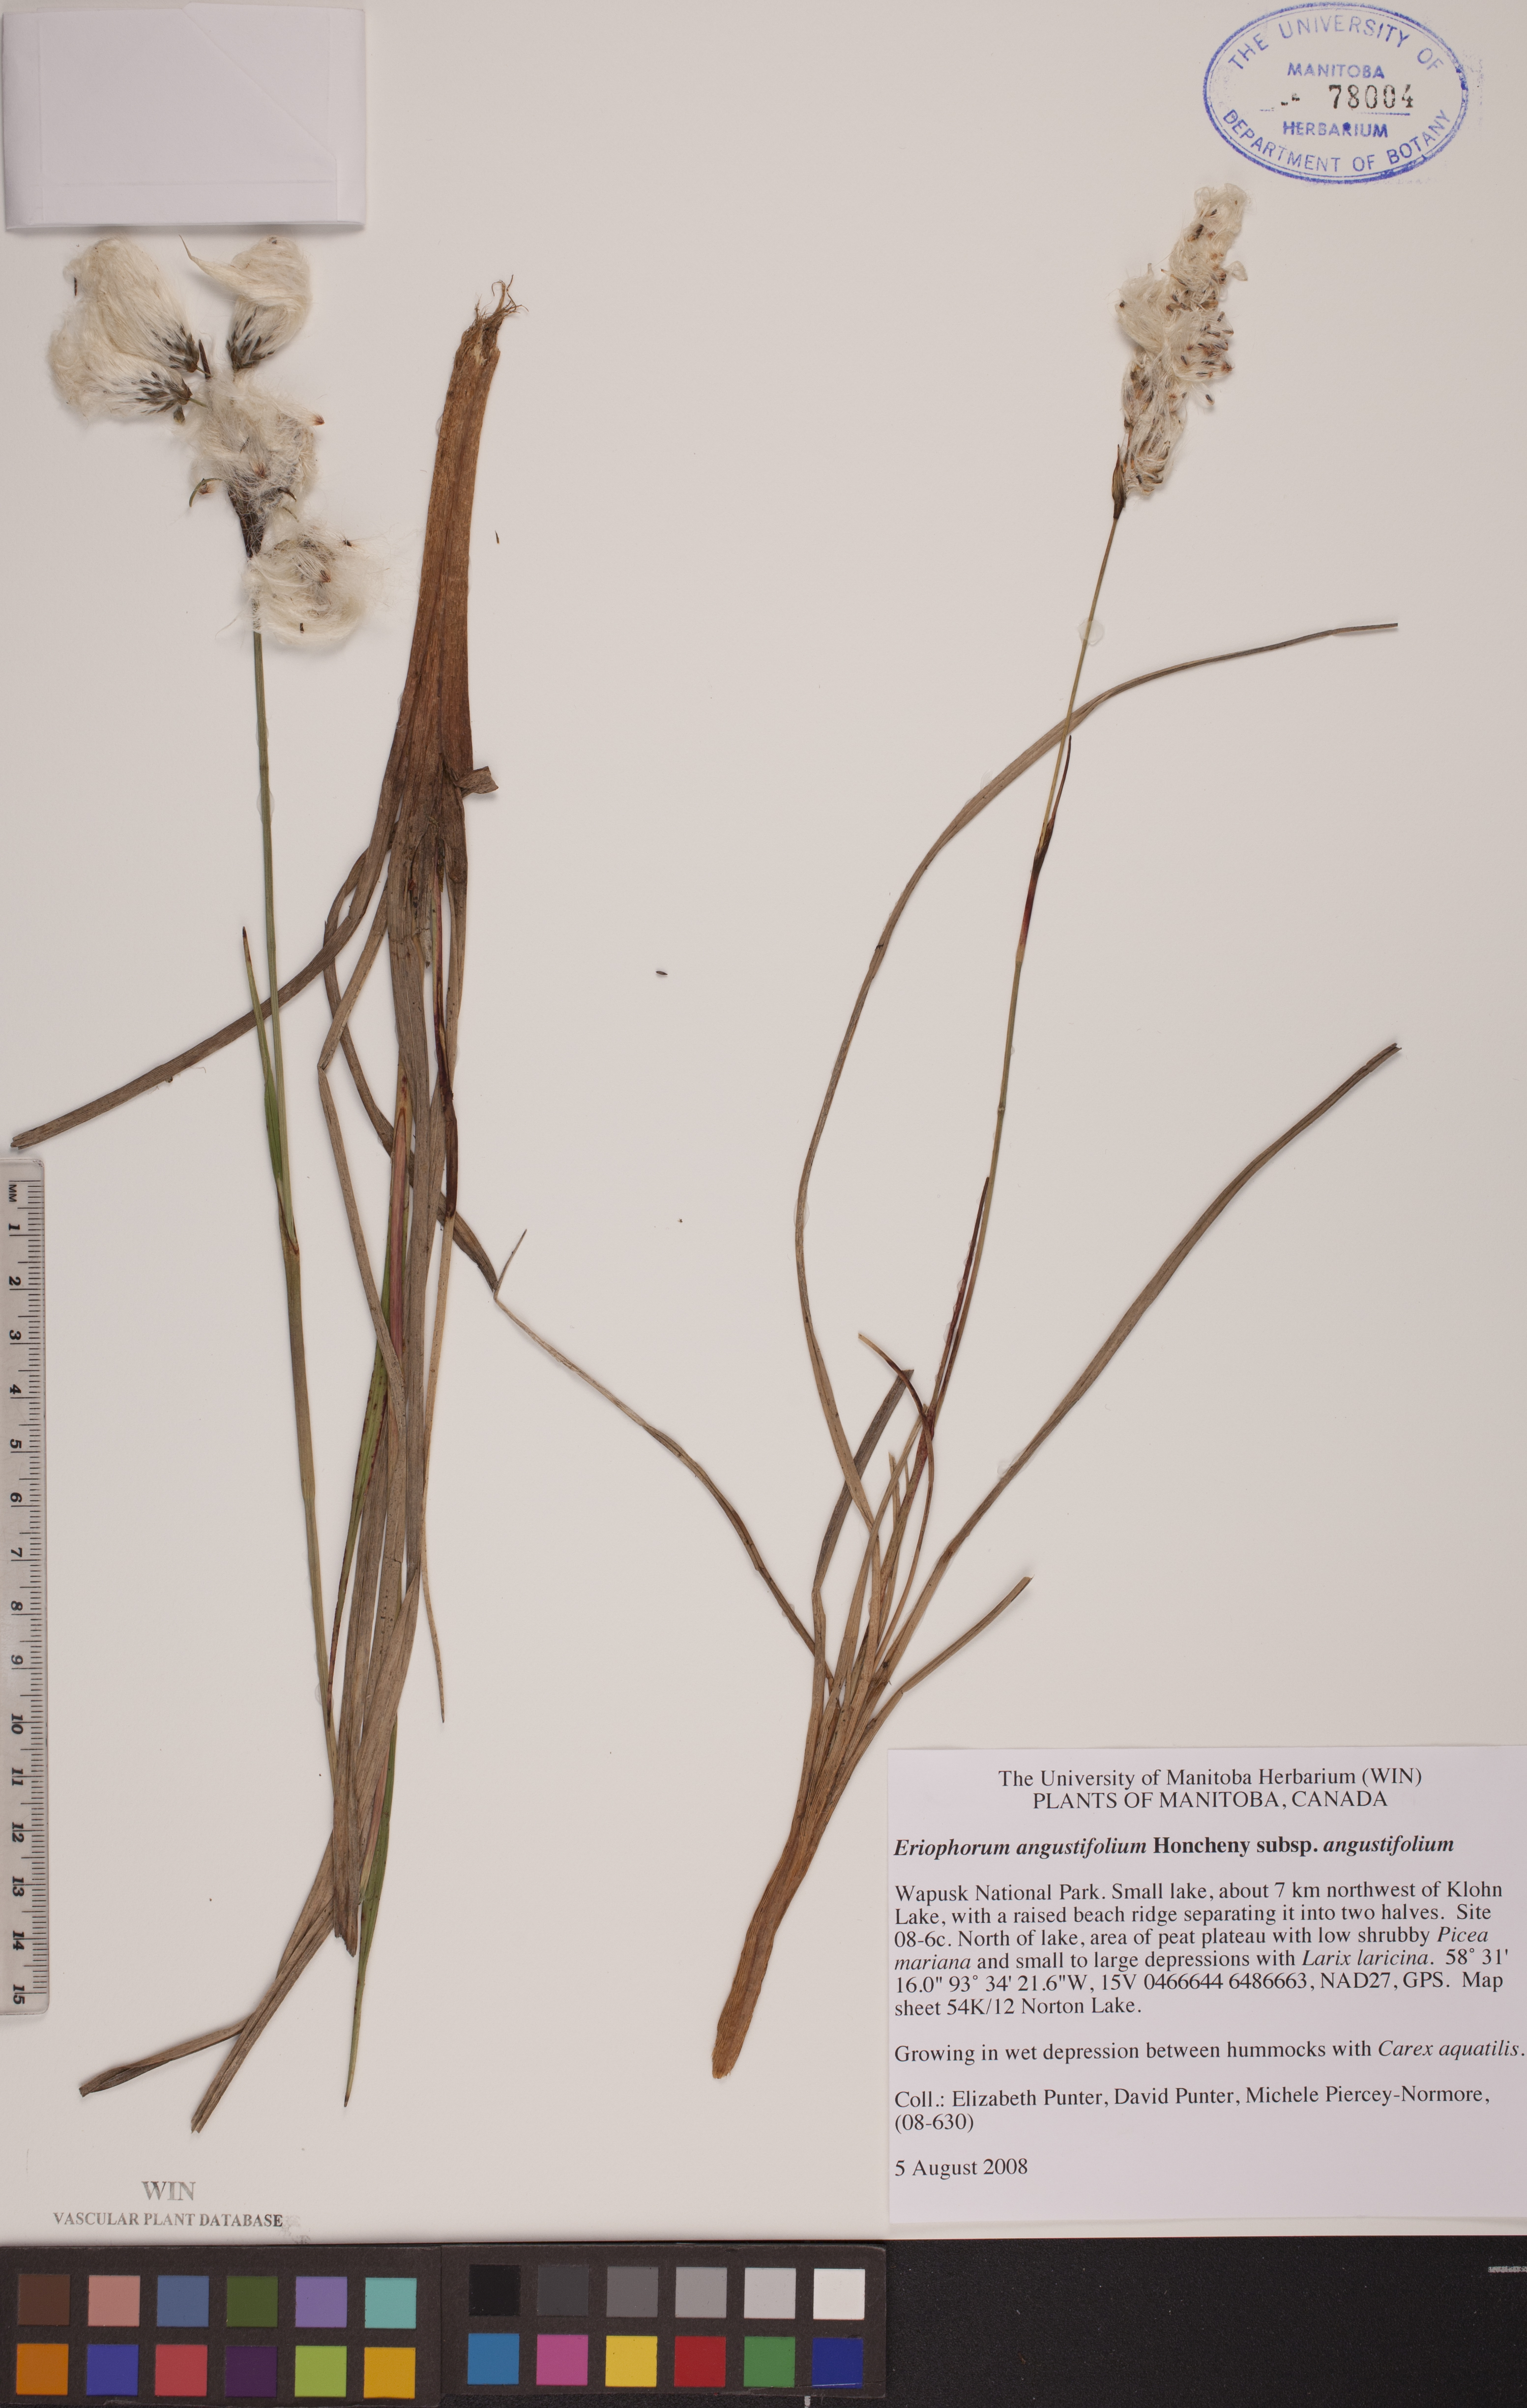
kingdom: Plantae
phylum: Tracheophyta
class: Liliopsida
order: Poales
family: Cyperaceae
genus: Eriophorum
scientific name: Eriophorum angustifolium
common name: Common cottongrass
